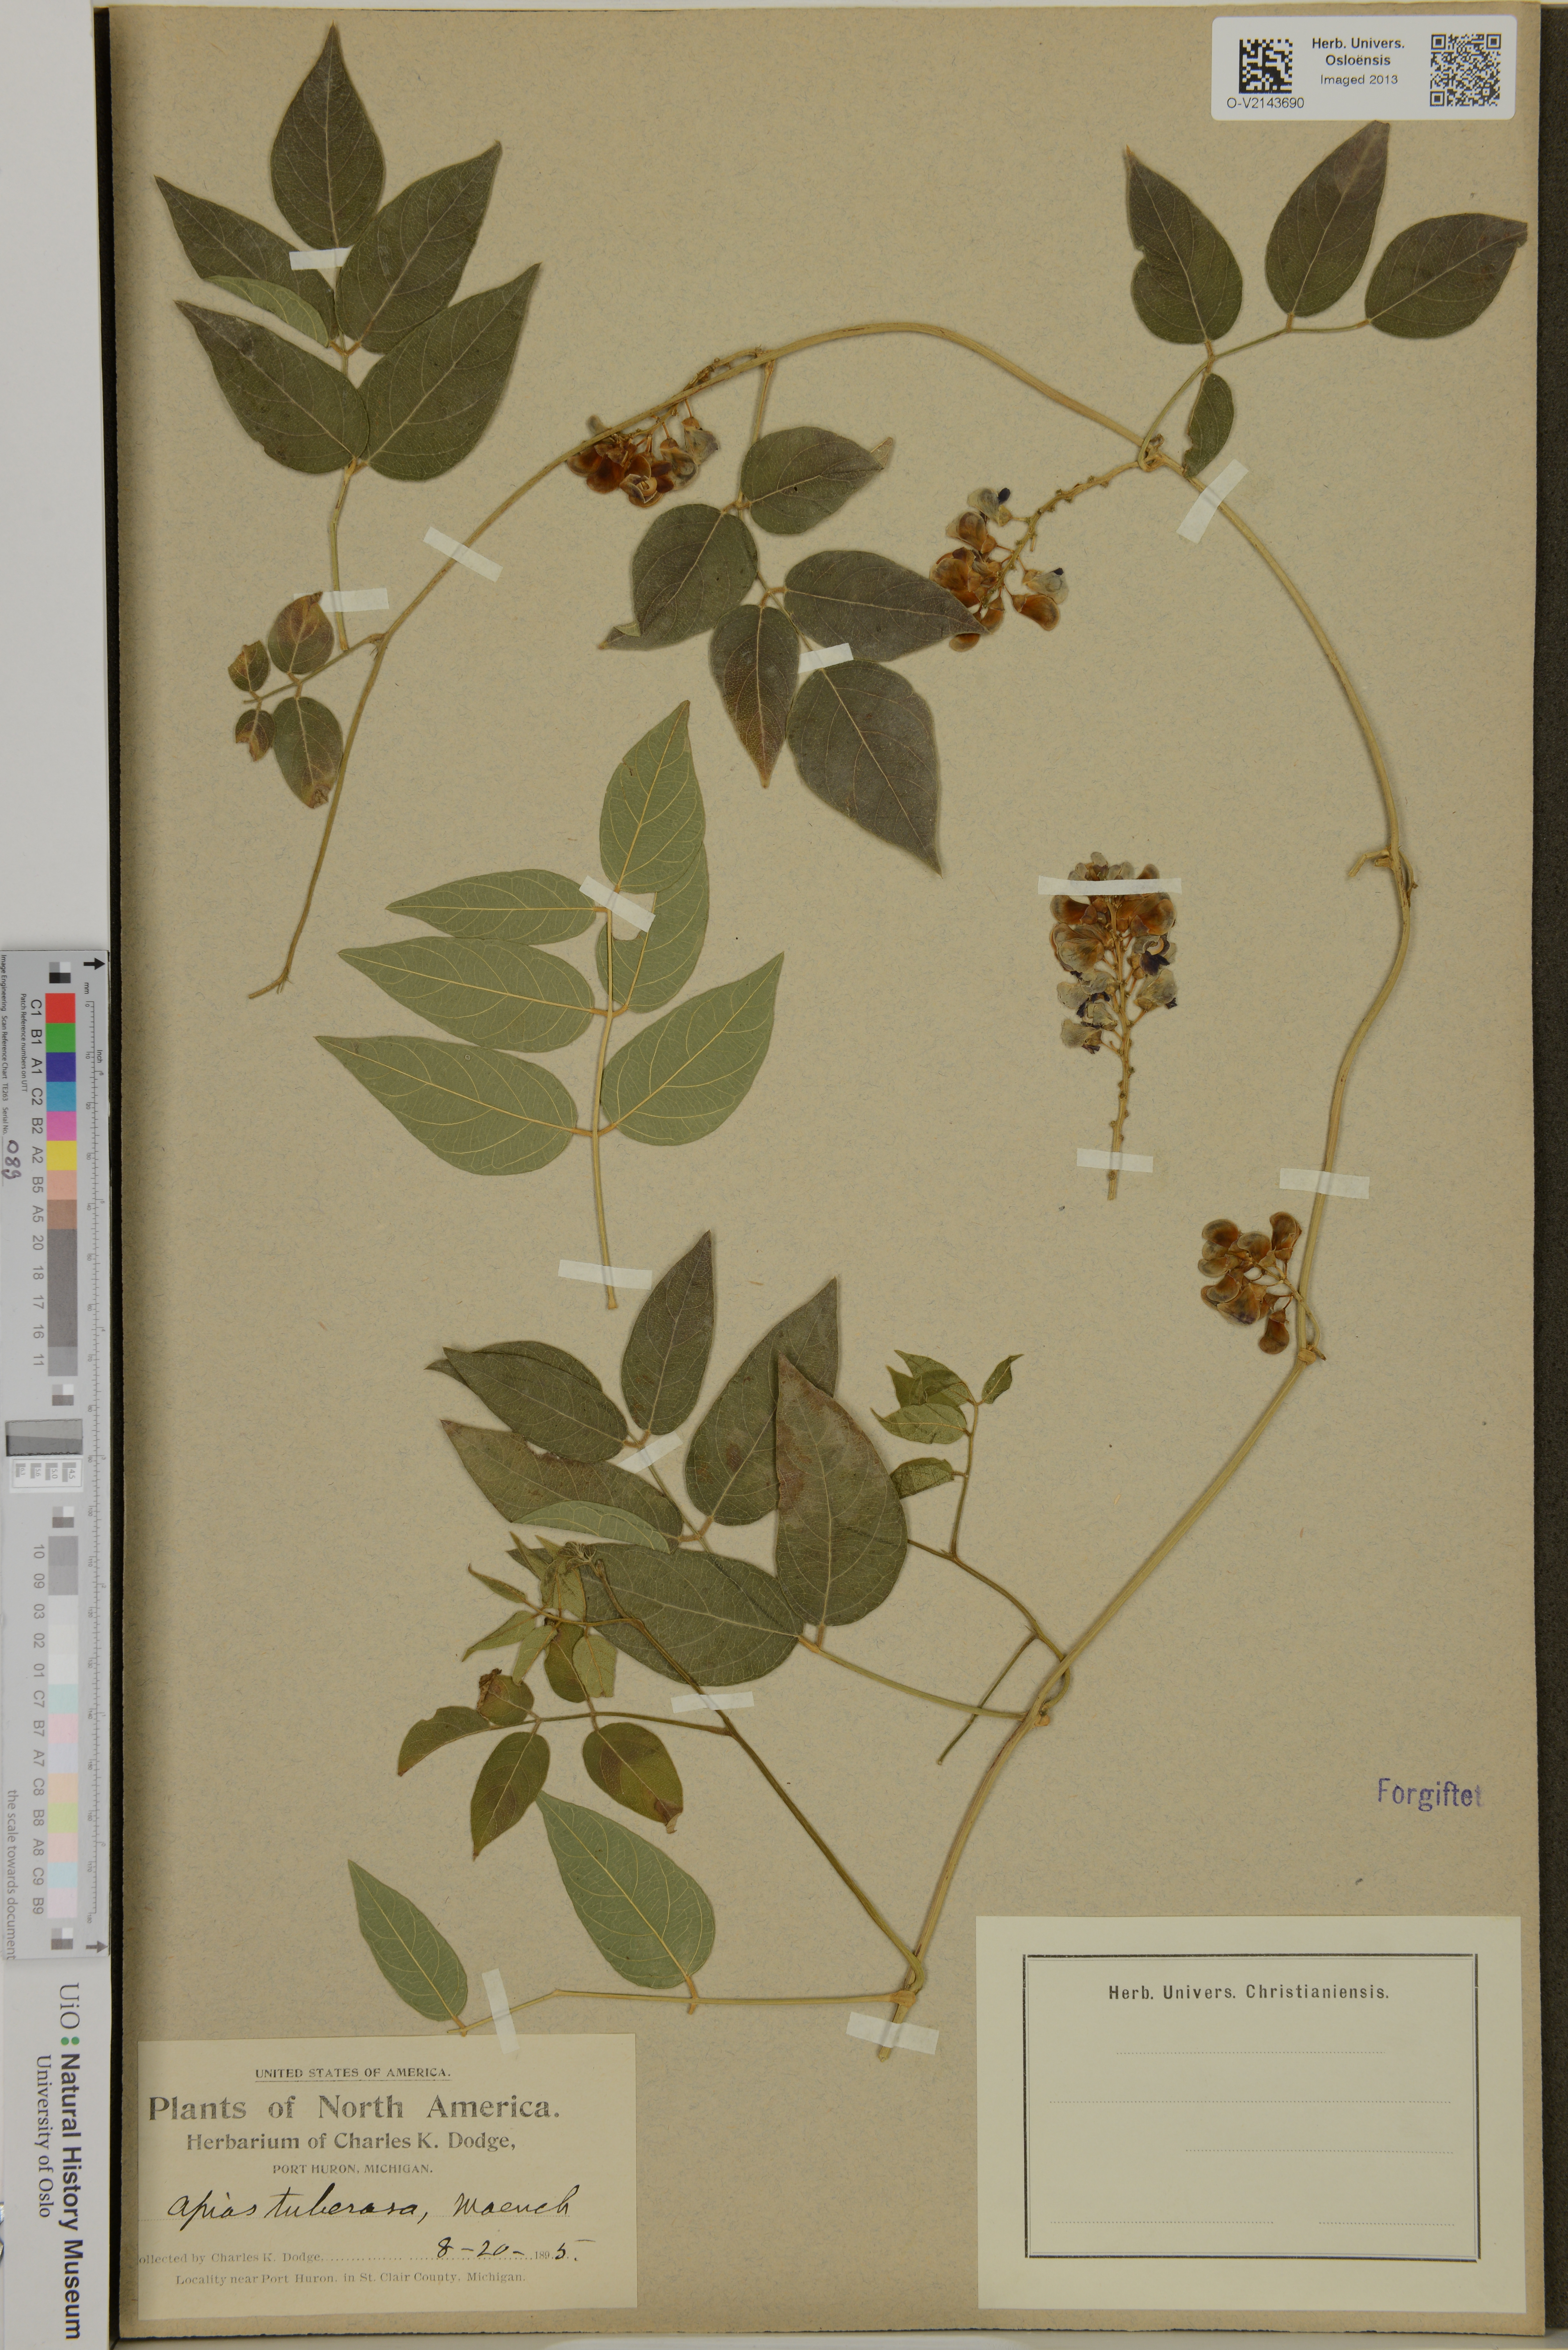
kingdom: Plantae
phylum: Tracheophyta
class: Magnoliopsida
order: Fabales
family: Fabaceae
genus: Apios
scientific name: Apios americana
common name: American potato-bean
